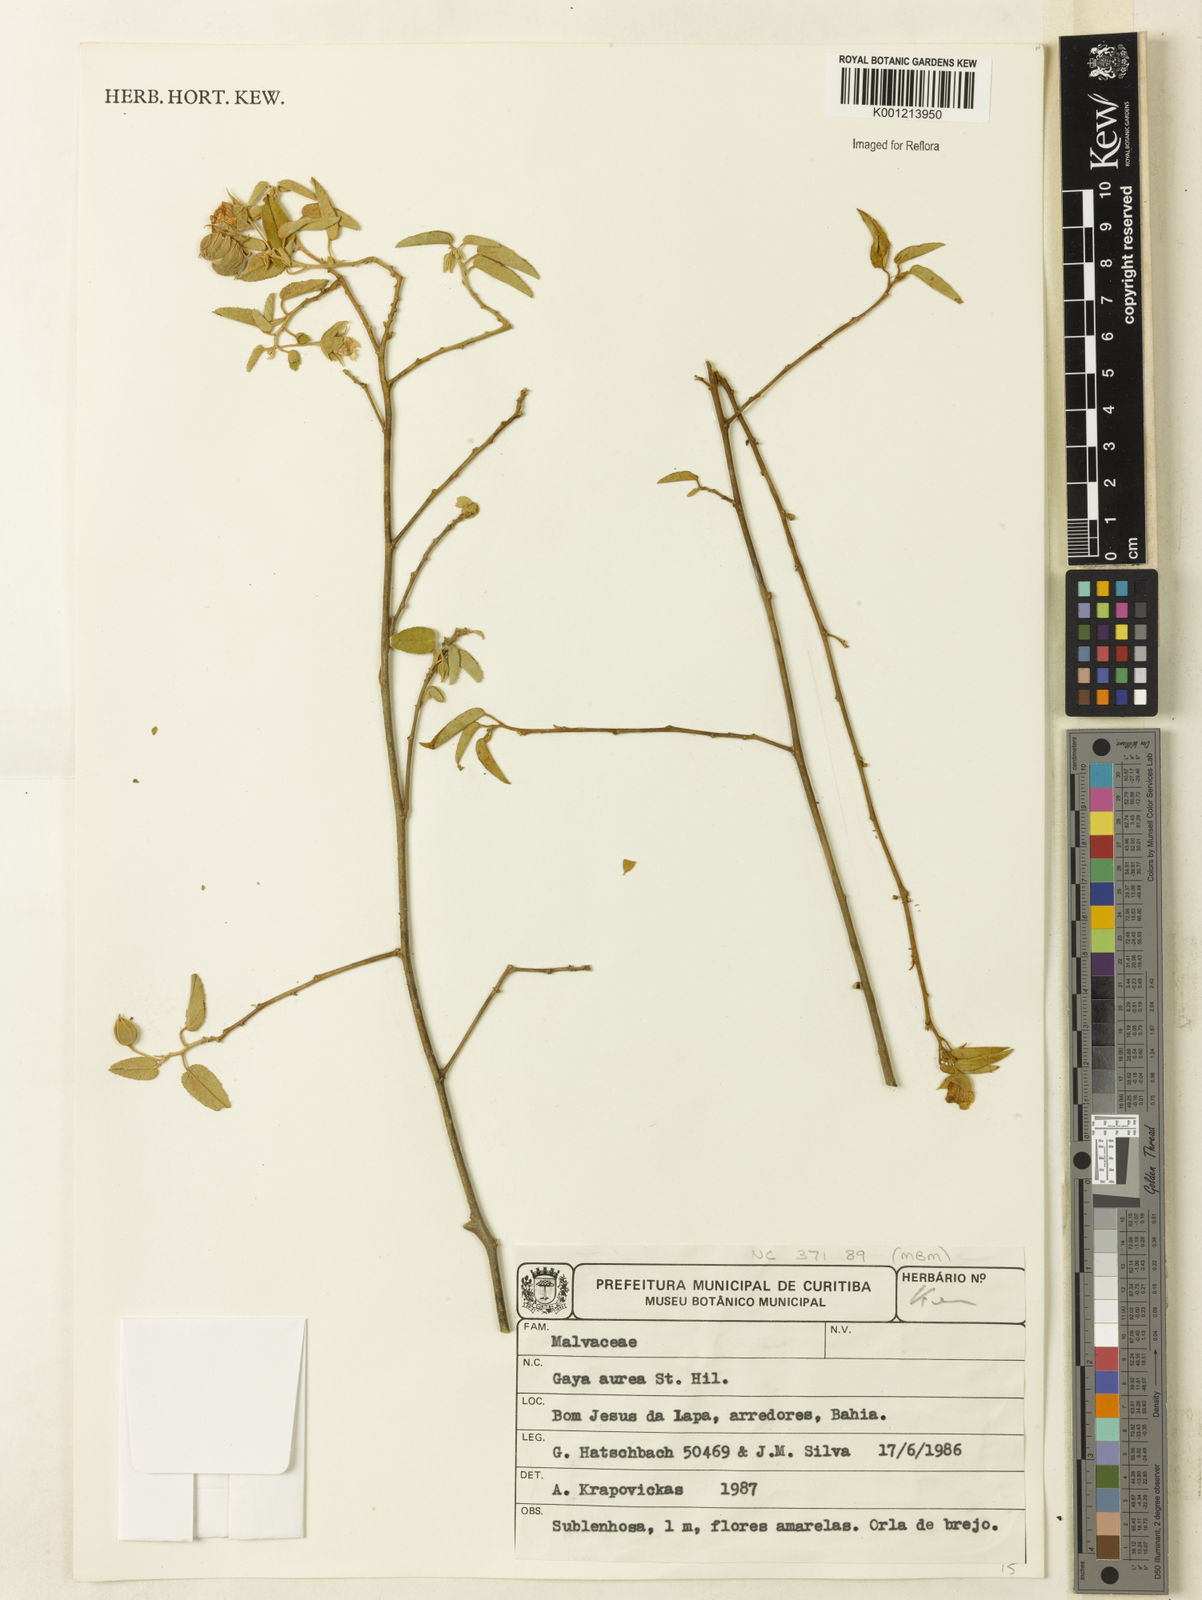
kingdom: Plantae
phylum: Tracheophyta
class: Magnoliopsida
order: Malvales
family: Malvaceae
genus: Gaya
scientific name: Gaya aurea
